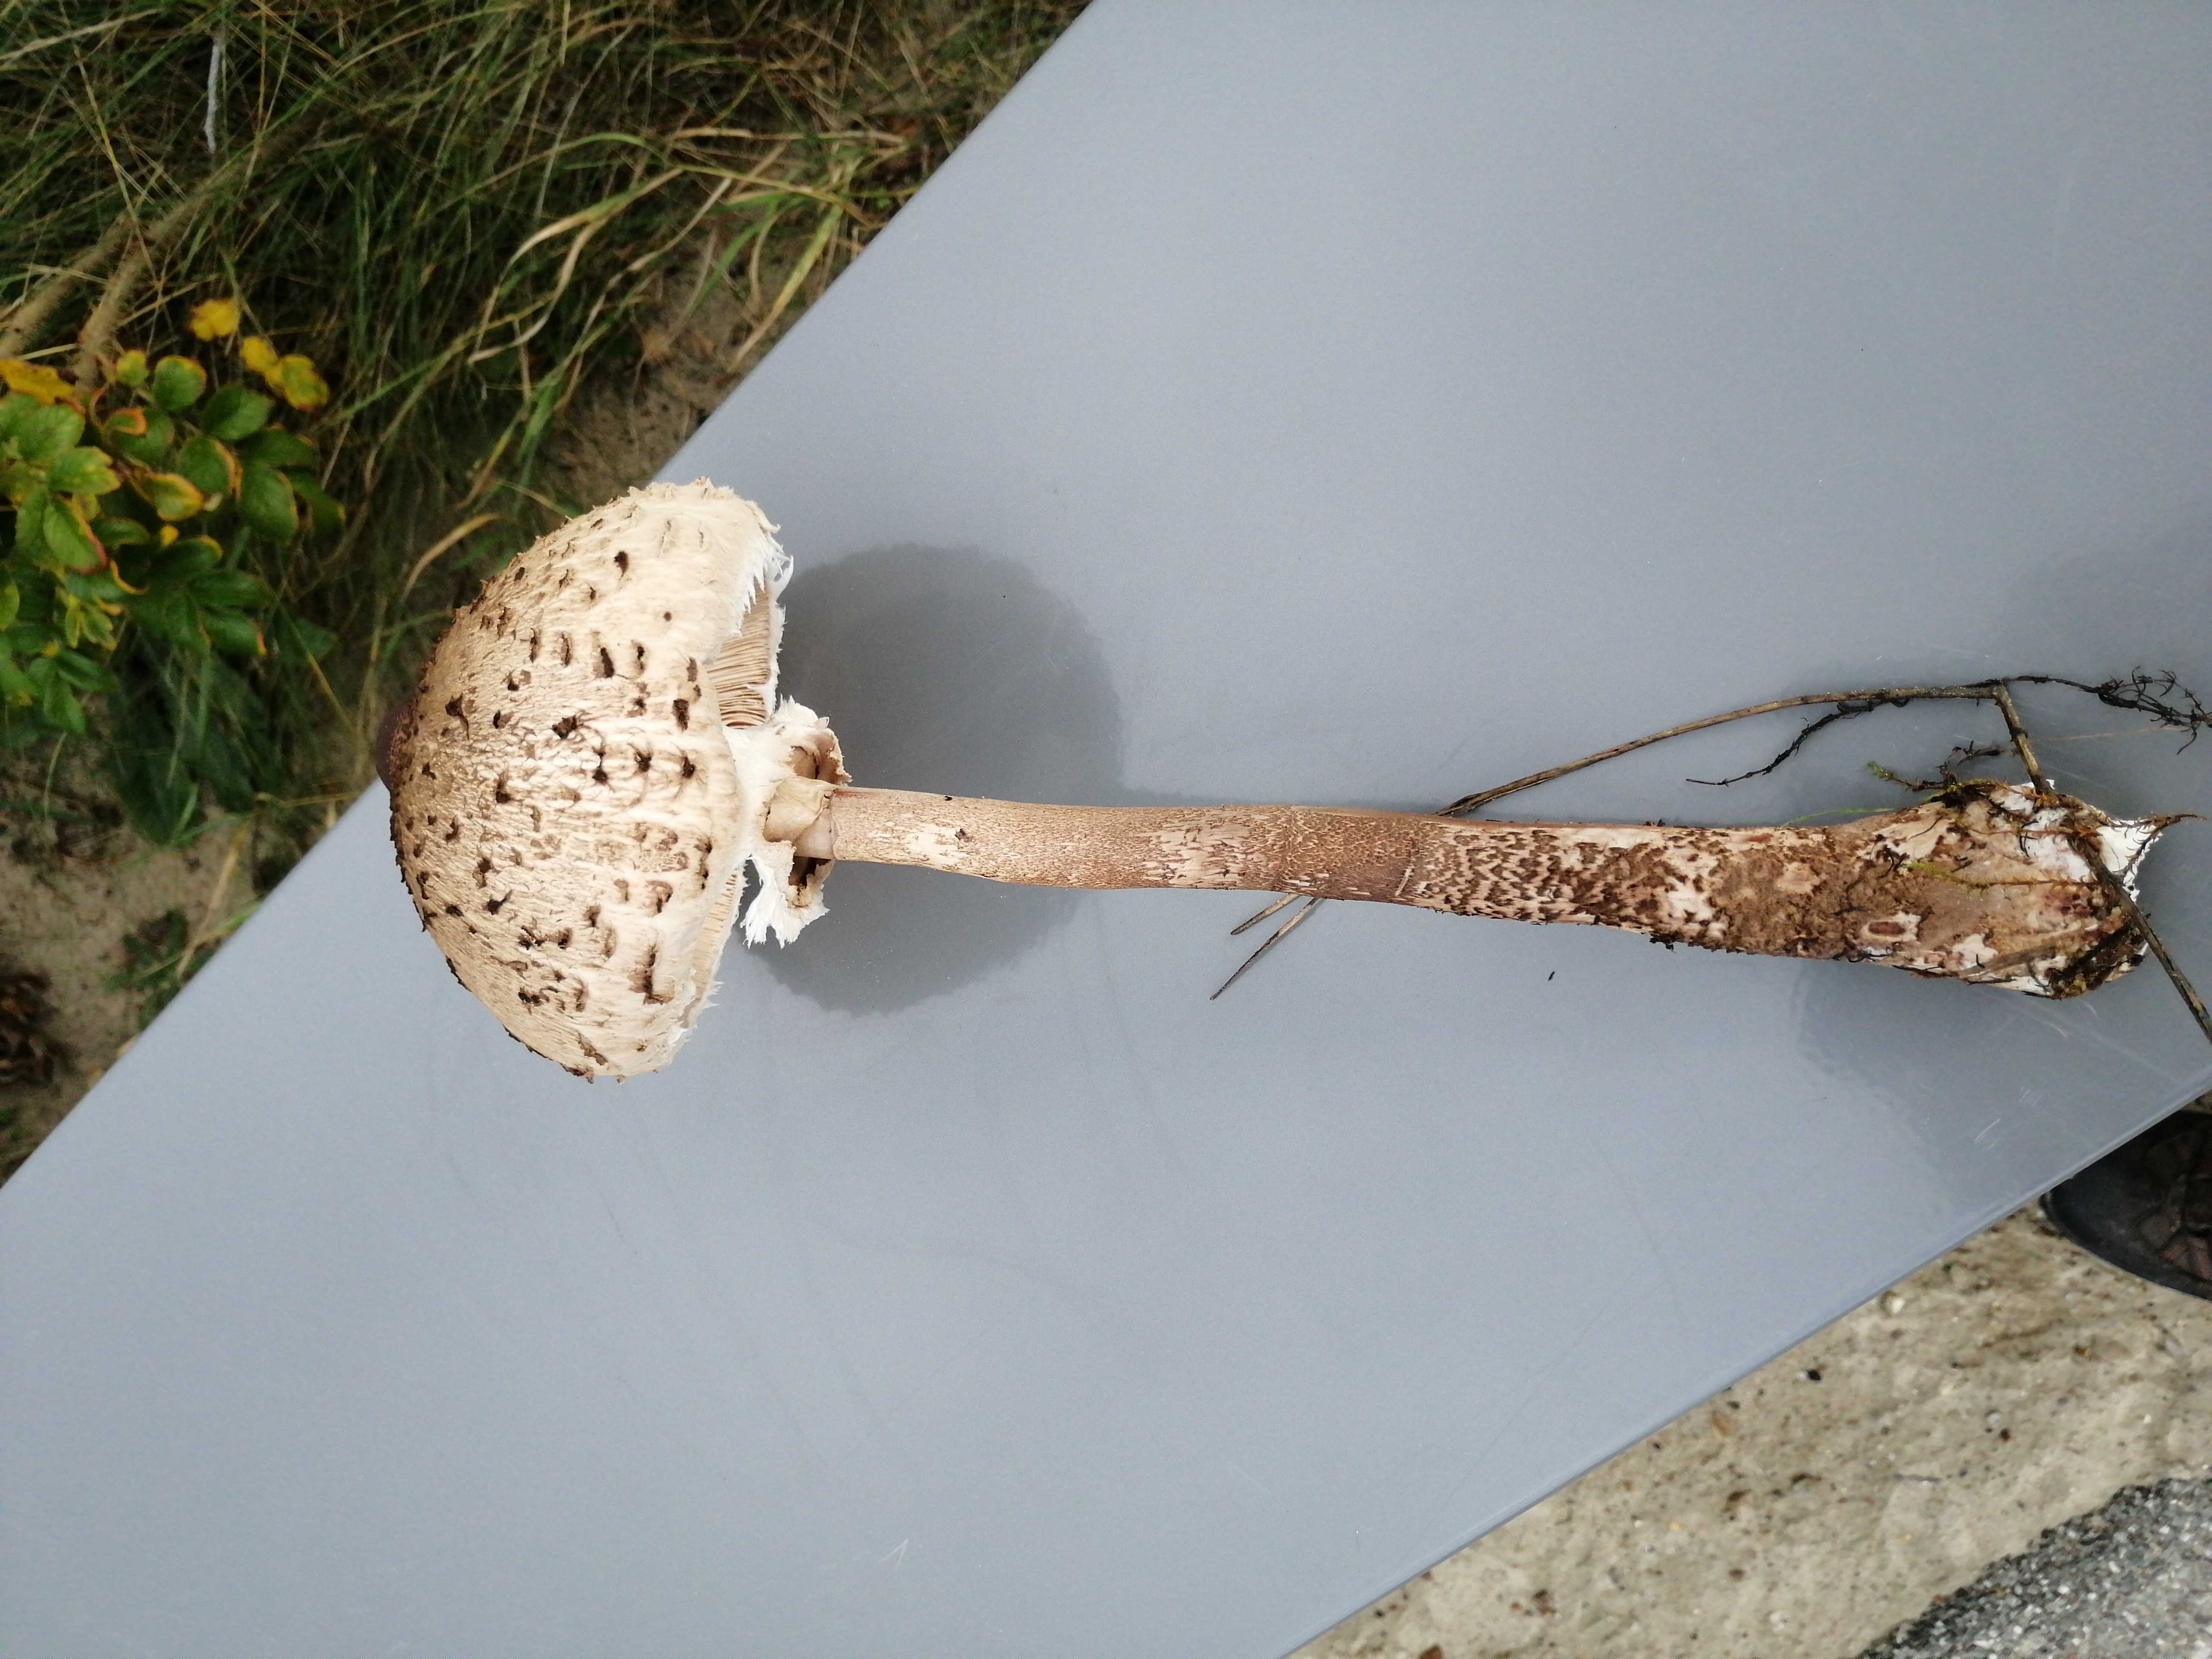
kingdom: Fungi
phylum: Basidiomycota
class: Agaricomycetes
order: Agaricales
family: Agaricaceae
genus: Macrolepiota
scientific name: Macrolepiota procera
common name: stor kæmpeparasolhat
